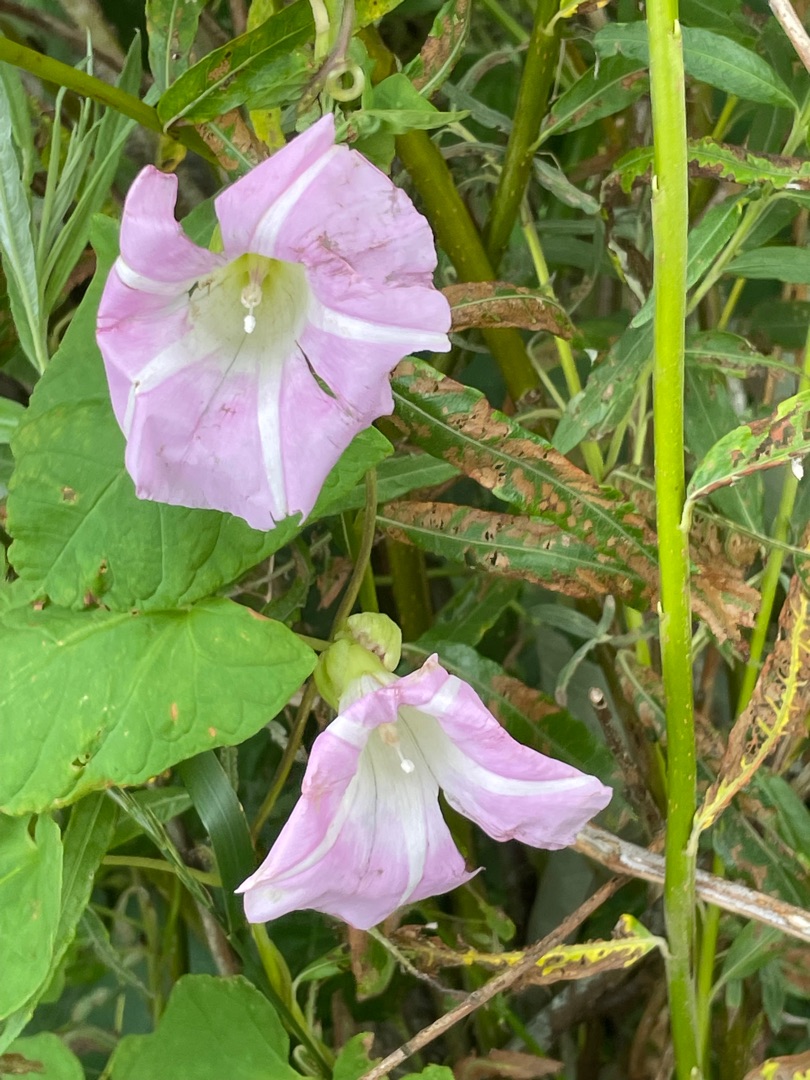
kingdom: Plantae
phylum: Tracheophyta
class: Magnoliopsida
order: Solanales
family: Convolvulaceae
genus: Calystegia
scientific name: Calystegia pulchra
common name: Have-snerle
